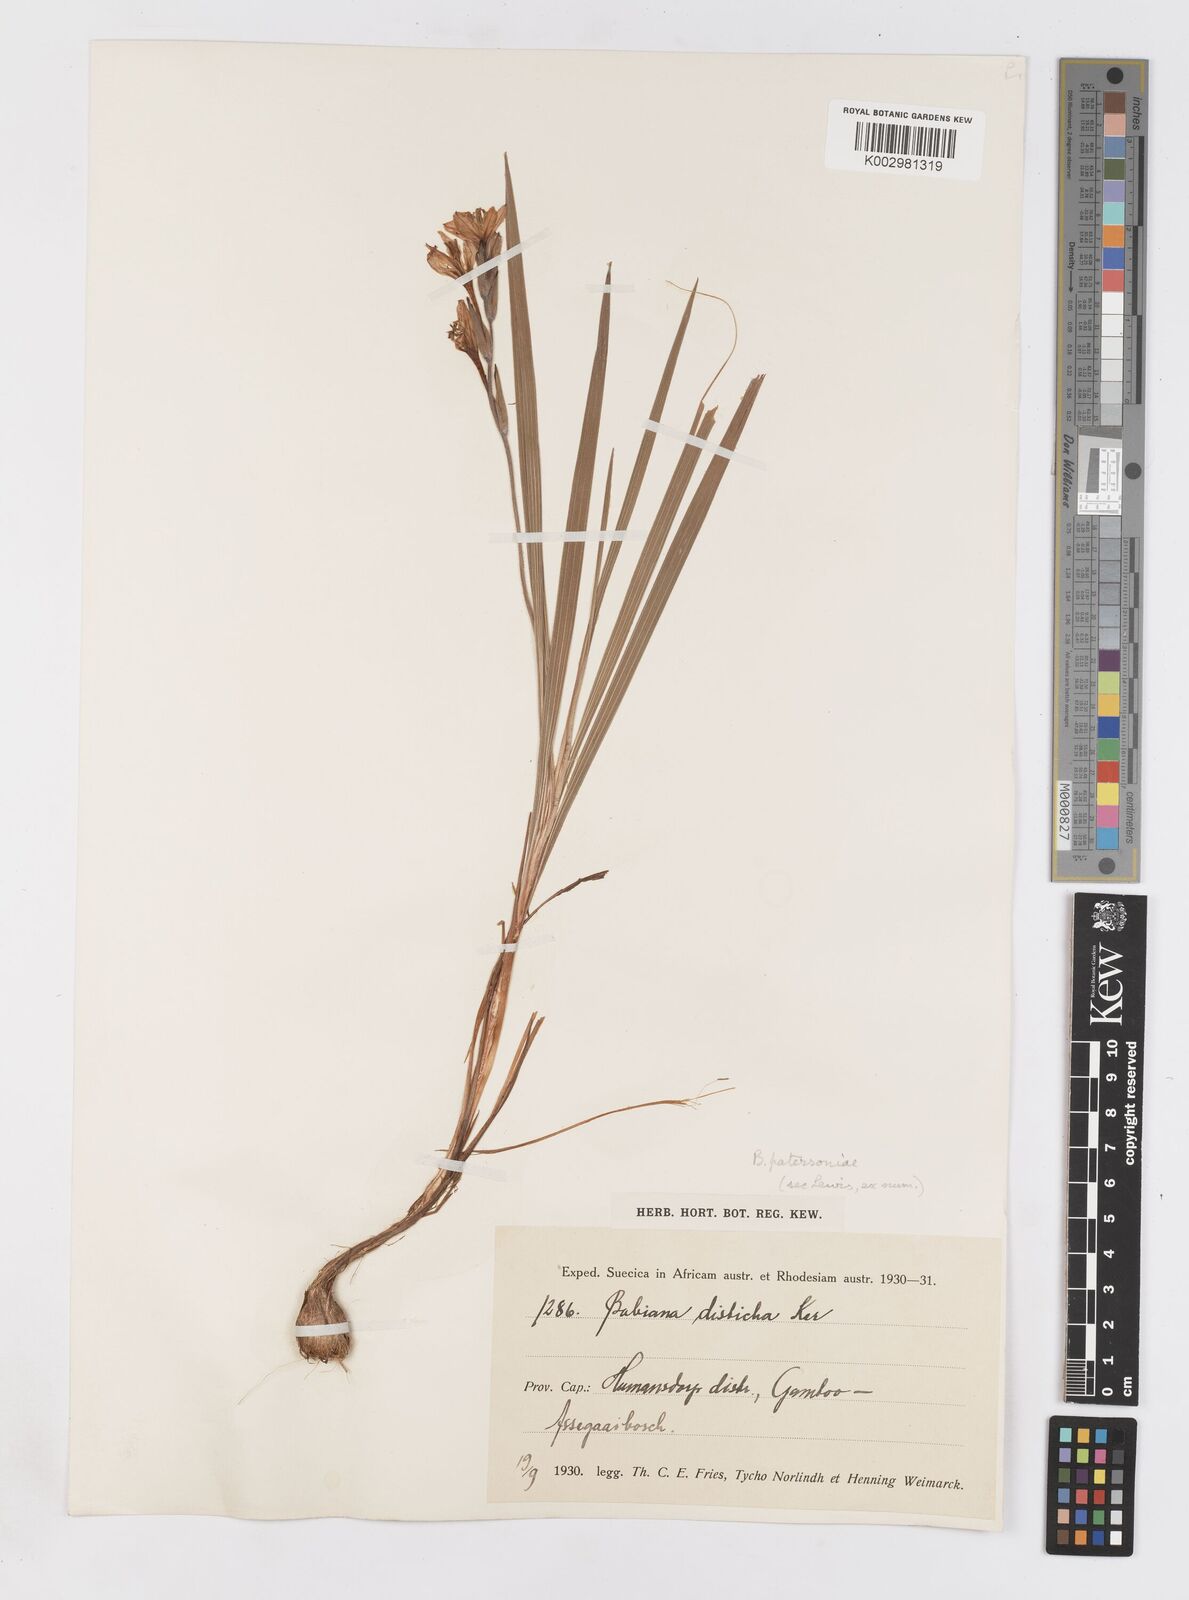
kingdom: Plantae
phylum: Tracheophyta
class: Liliopsida
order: Asparagales
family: Iridaceae
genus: Babiana
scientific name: Babiana patersoniae
